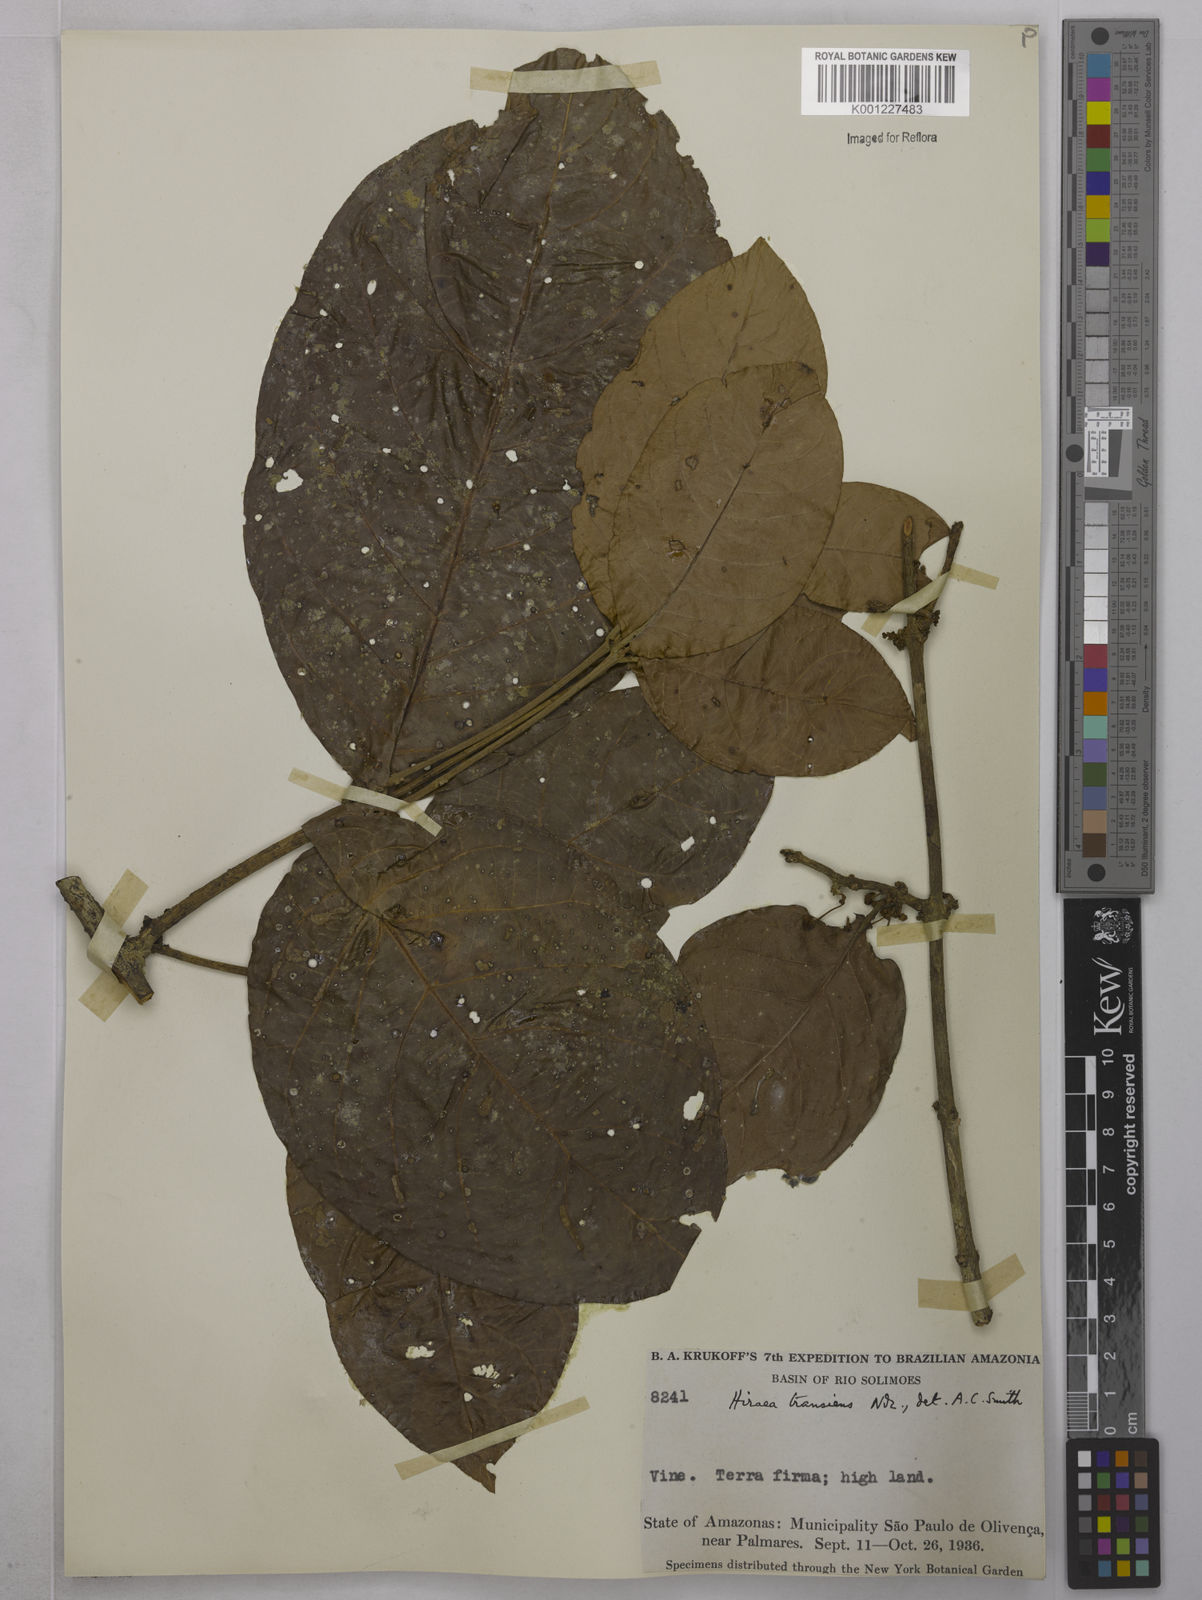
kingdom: Plantae
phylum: Tracheophyta
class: Magnoliopsida
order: Malpighiales
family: Malpighiaceae
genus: Hiraea
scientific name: Hiraea transiens
